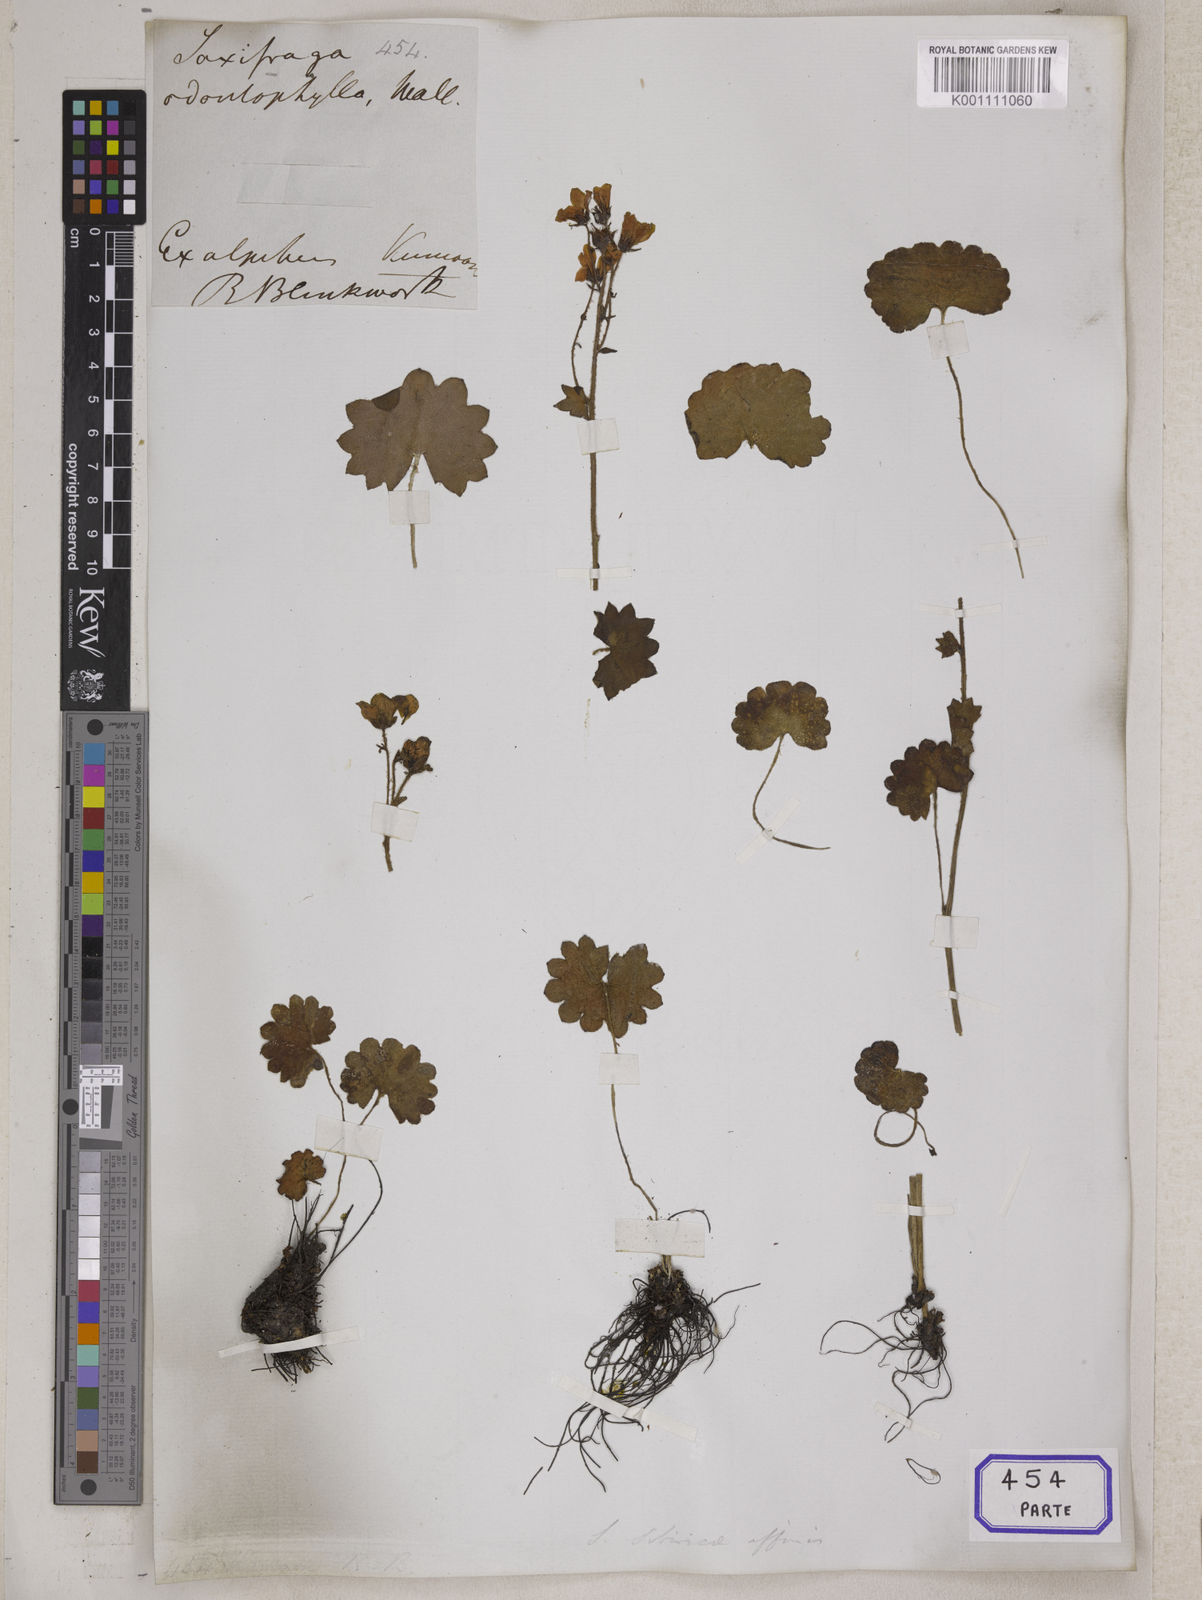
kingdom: Plantae
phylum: Tracheophyta
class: Magnoliopsida
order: Saxifragales
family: Saxifragaceae
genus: Saxifraga
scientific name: Saxifraga
